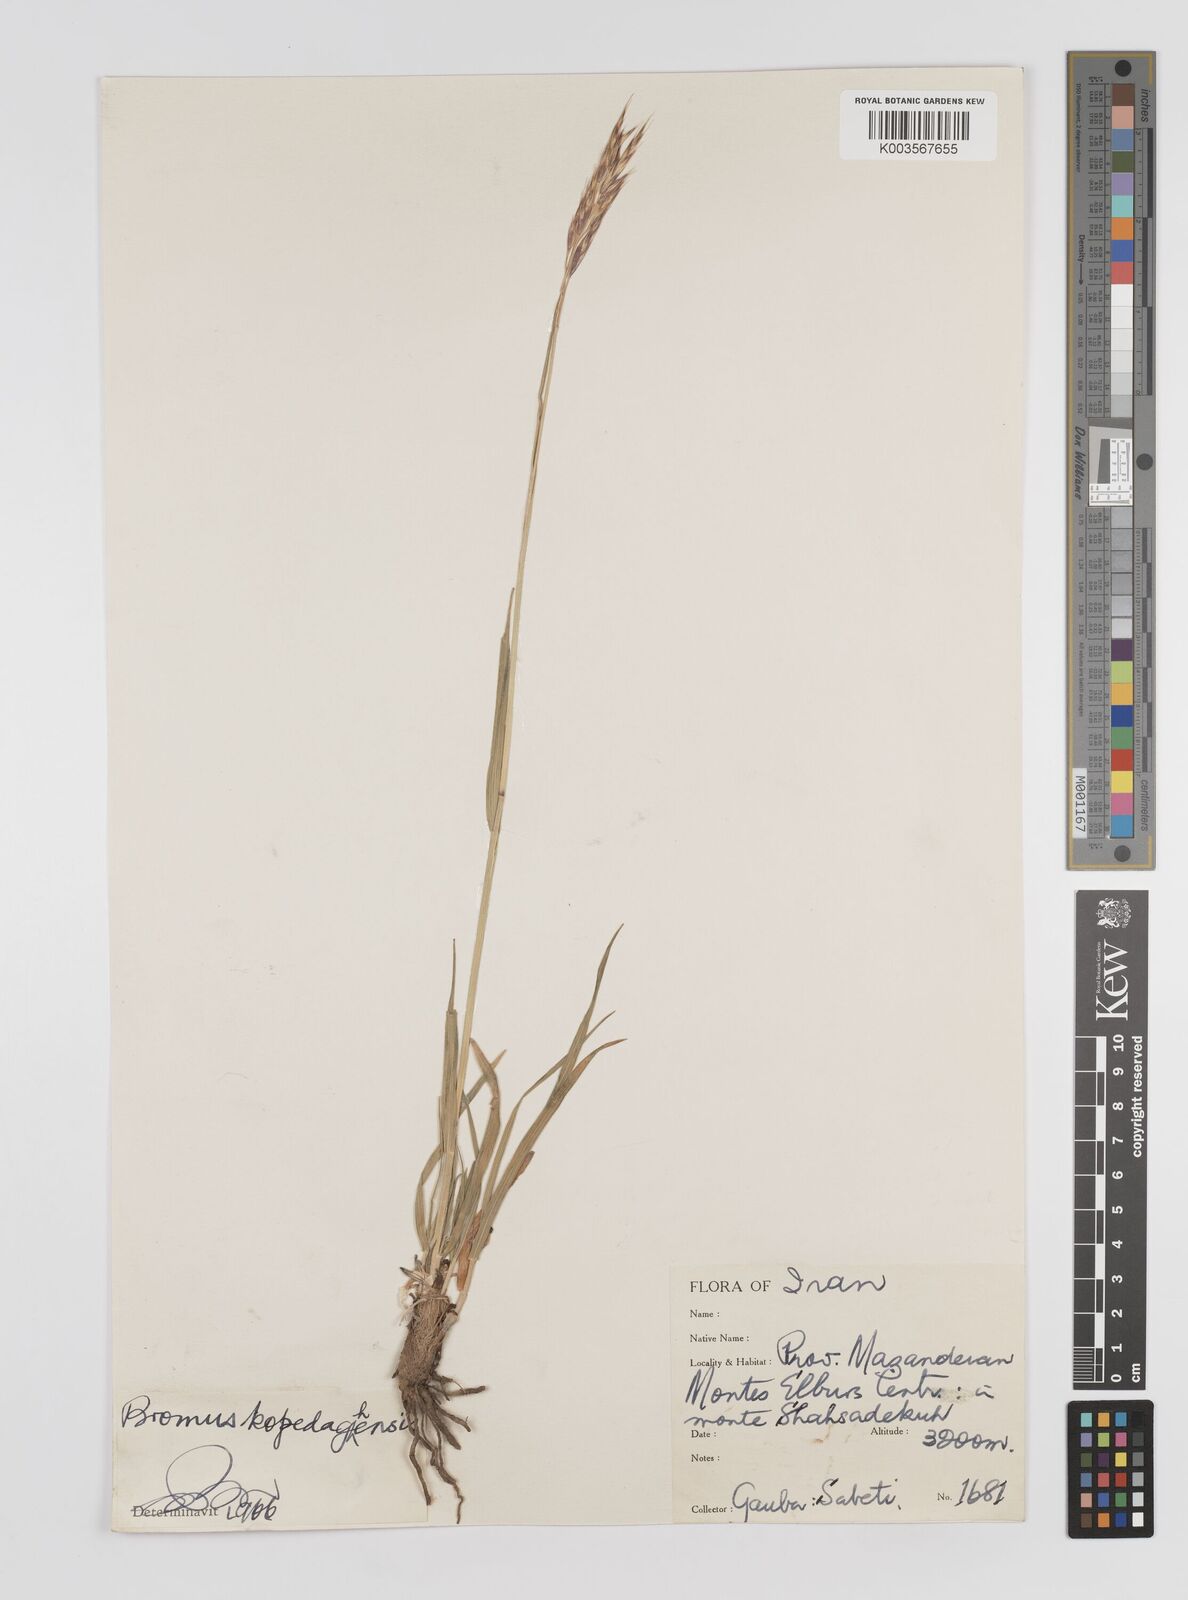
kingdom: Plantae
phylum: Tracheophyta
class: Liliopsida
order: Poales
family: Poaceae
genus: Bromus
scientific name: Bromus kopetdagensis
